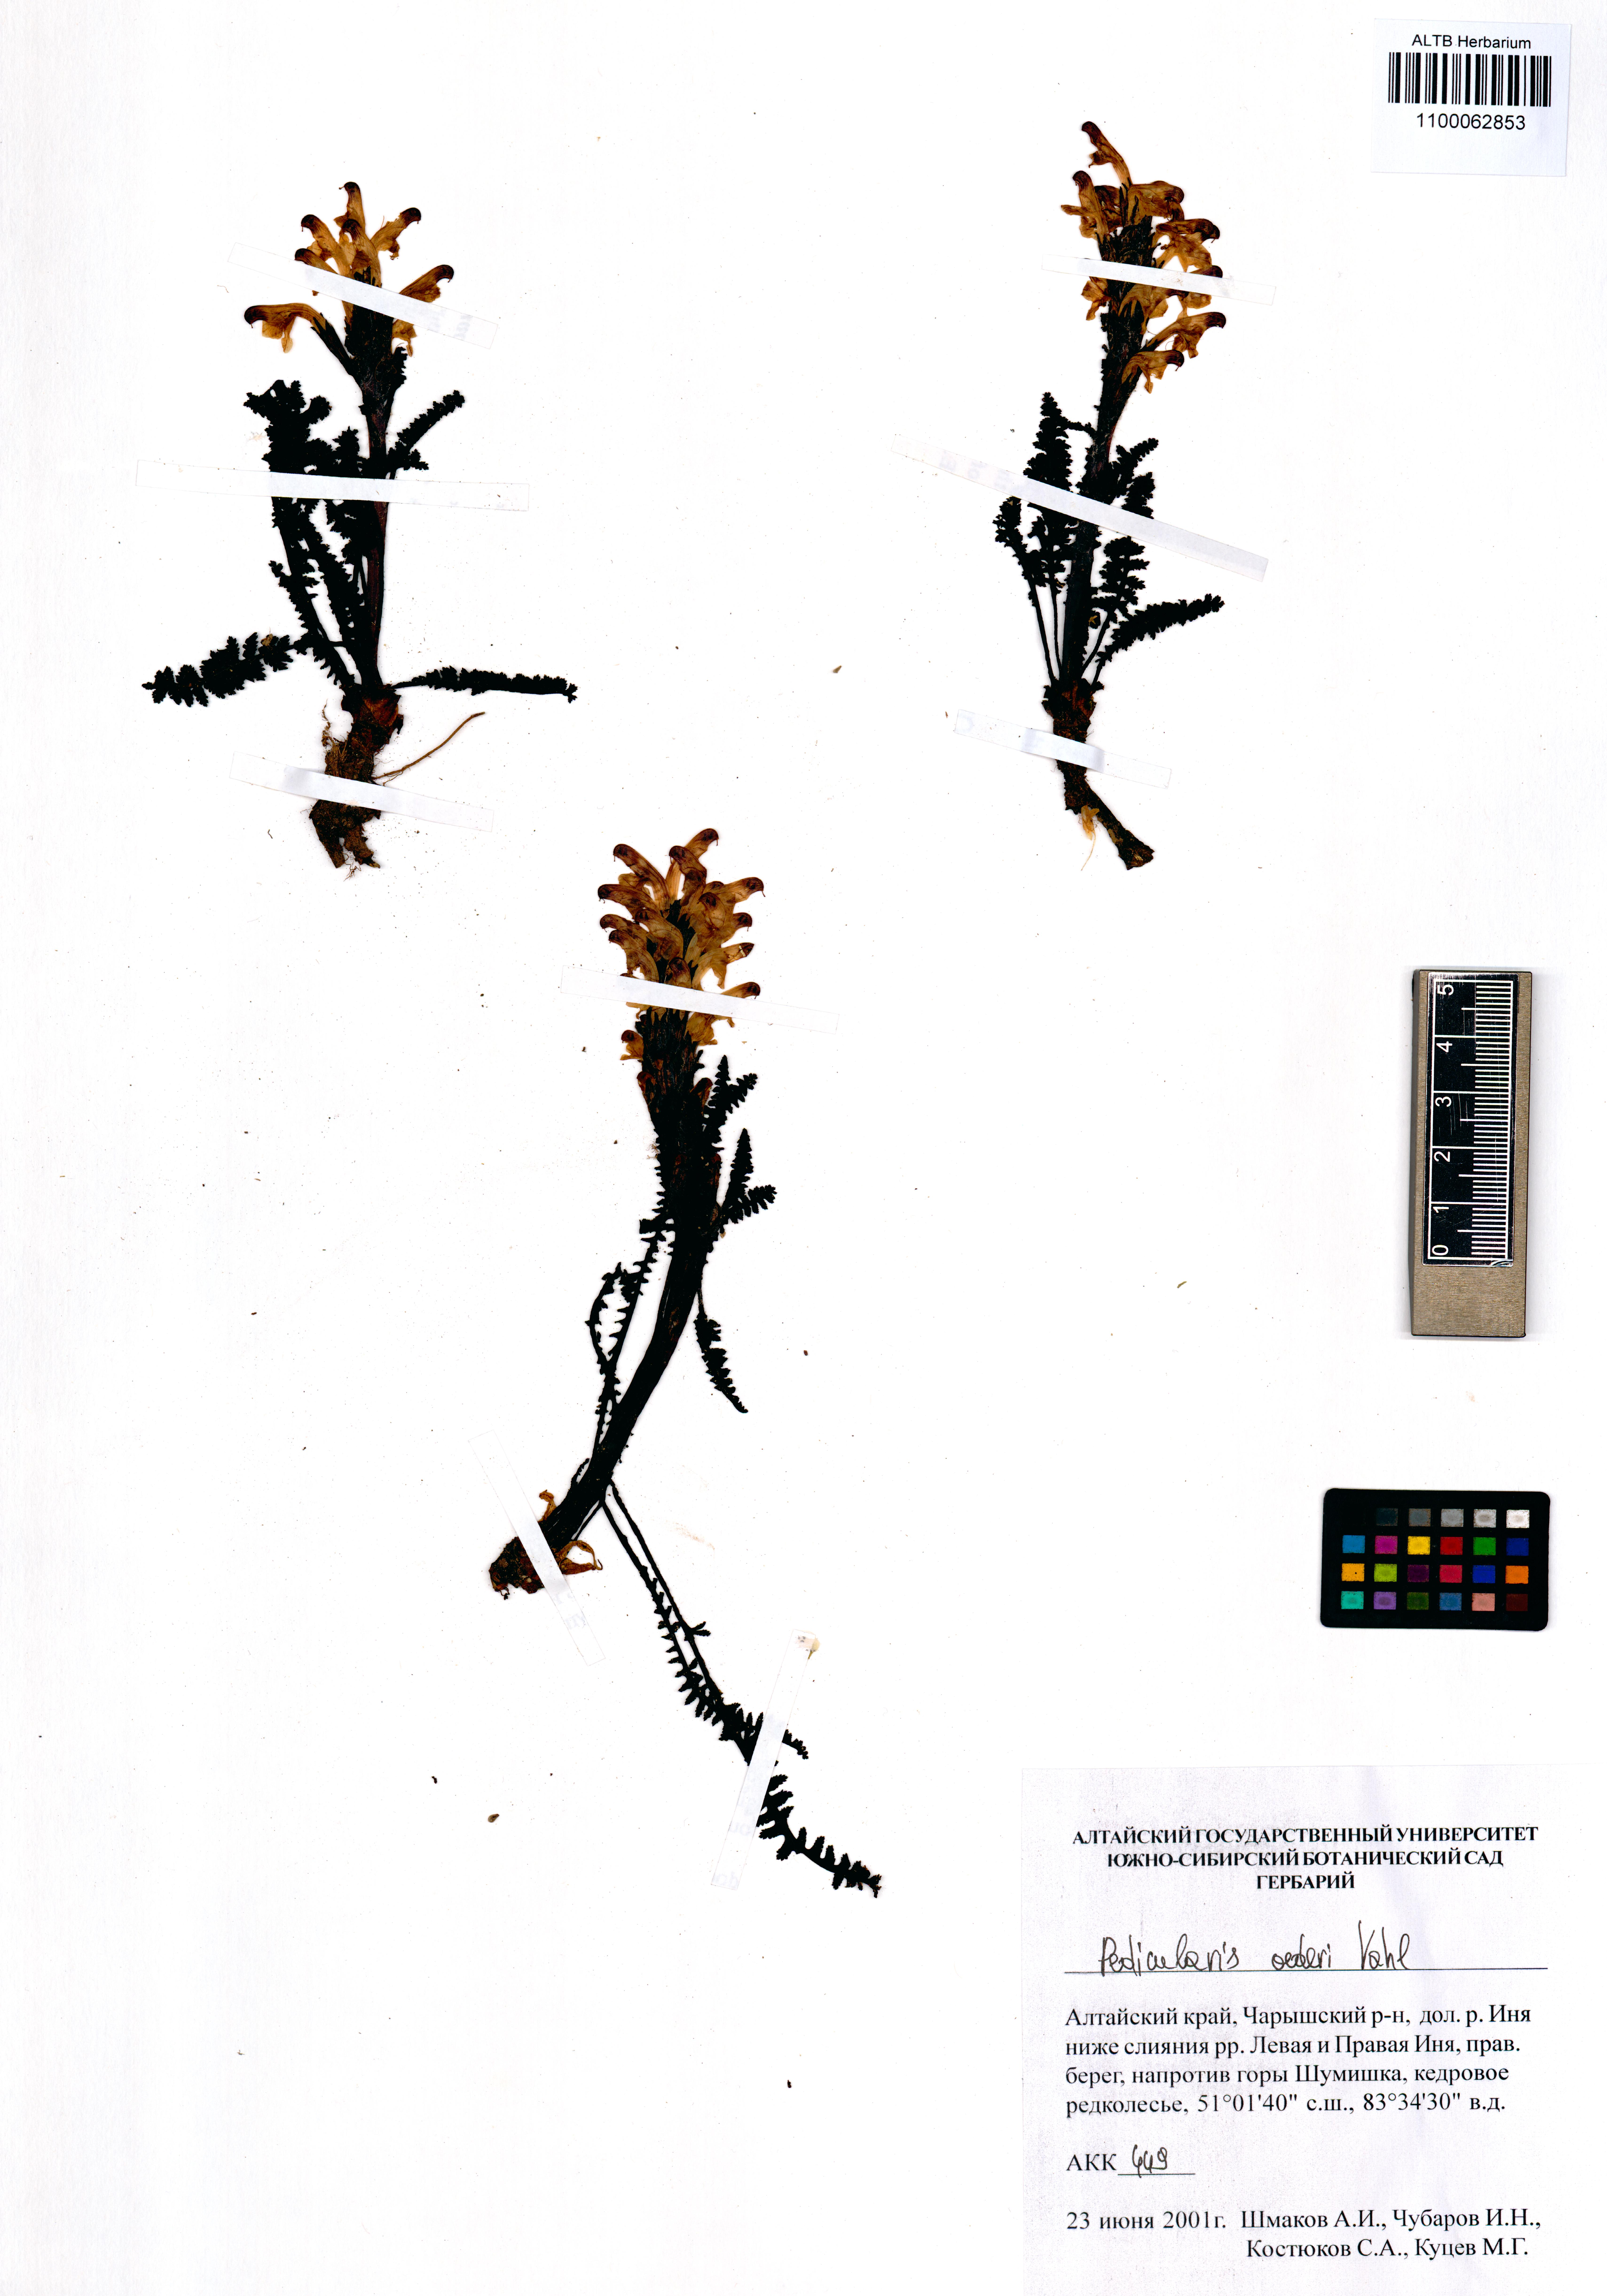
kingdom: Plantae
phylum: Tracheophyta
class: Magnoliopsida
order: Lamiales
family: Orobanchaceae
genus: Pedicularis
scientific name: Pedicularis oederi
